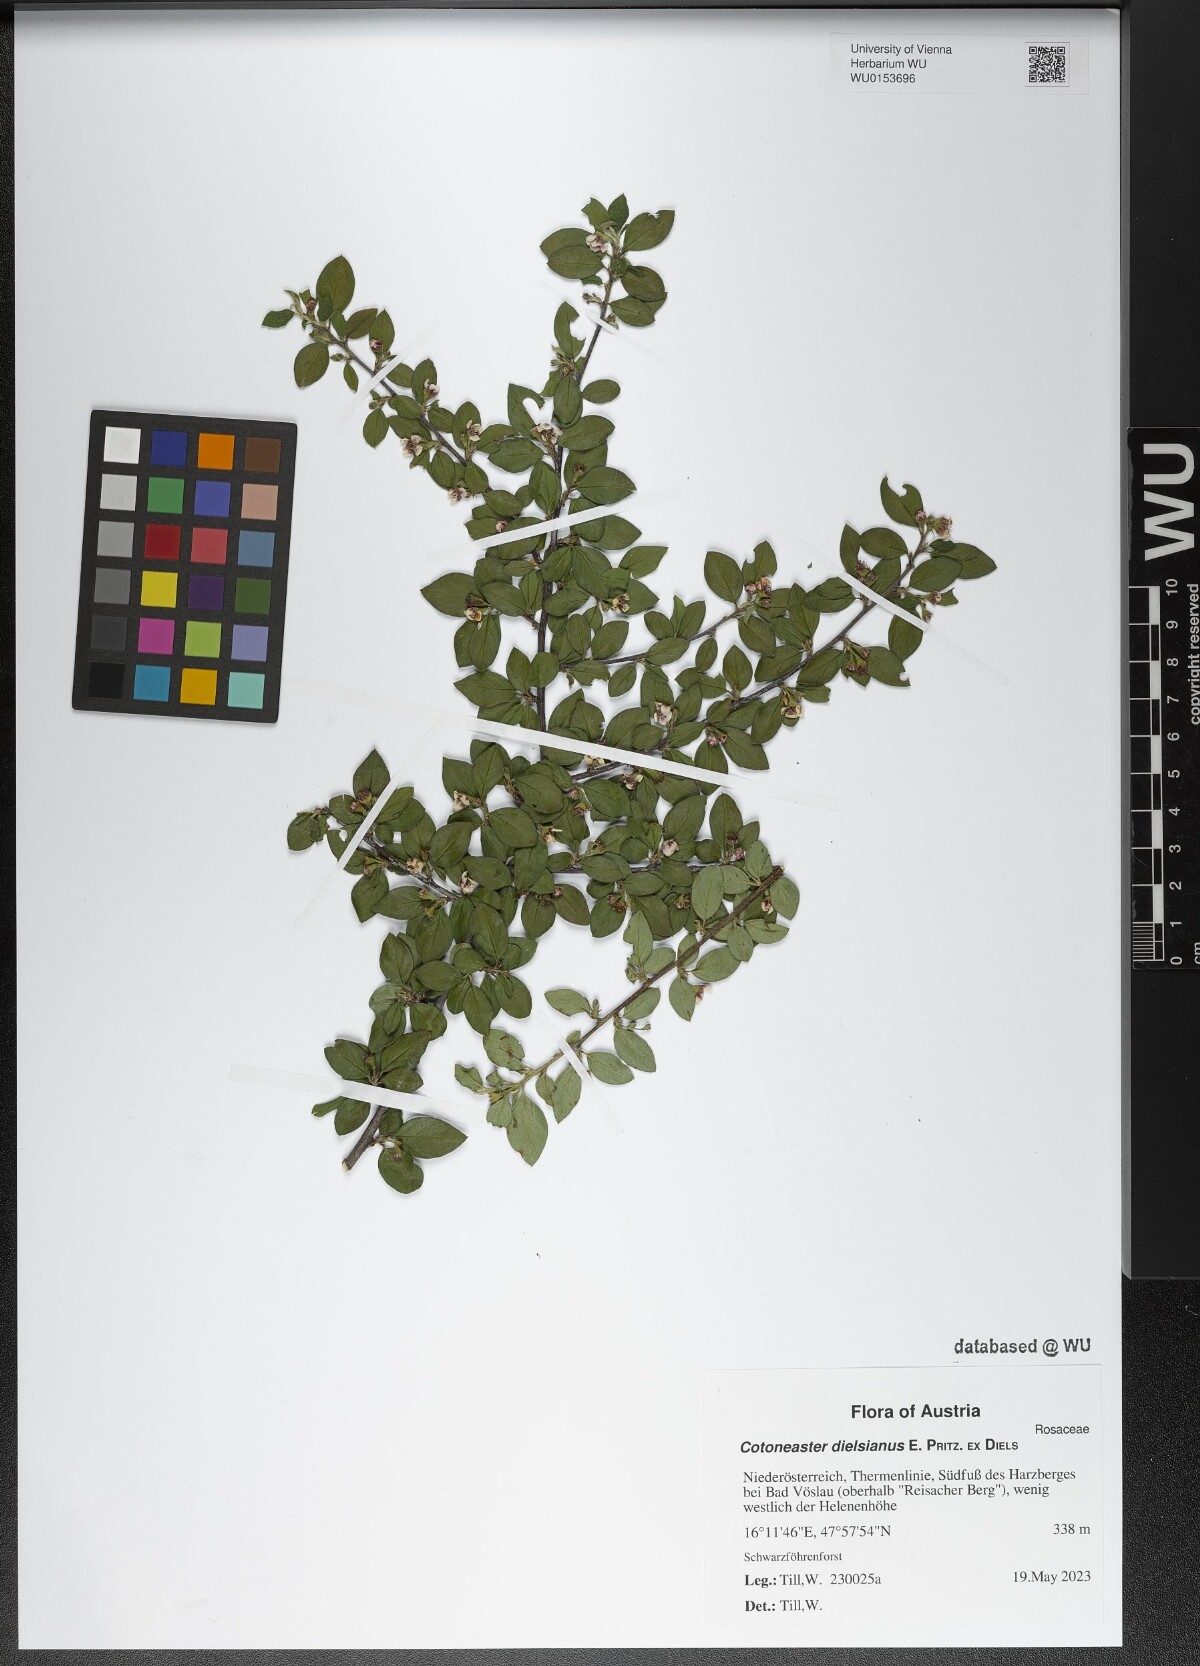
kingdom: Plantae
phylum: Tracheophyta
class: Magnoliopsida
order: Rosales
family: Rosaceae
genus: Cotoneaster
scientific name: Cotoneaster dielsianus
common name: Diels's cotoneaster
